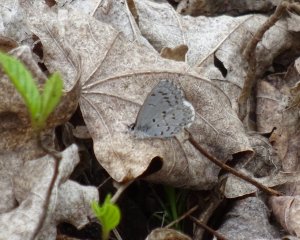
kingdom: Animalia
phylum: Arthropoda
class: Insecta
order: Lepidoptera
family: Lycaenidae
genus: Celastrina
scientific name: Celastrina lucia
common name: Northern Spring Azure
